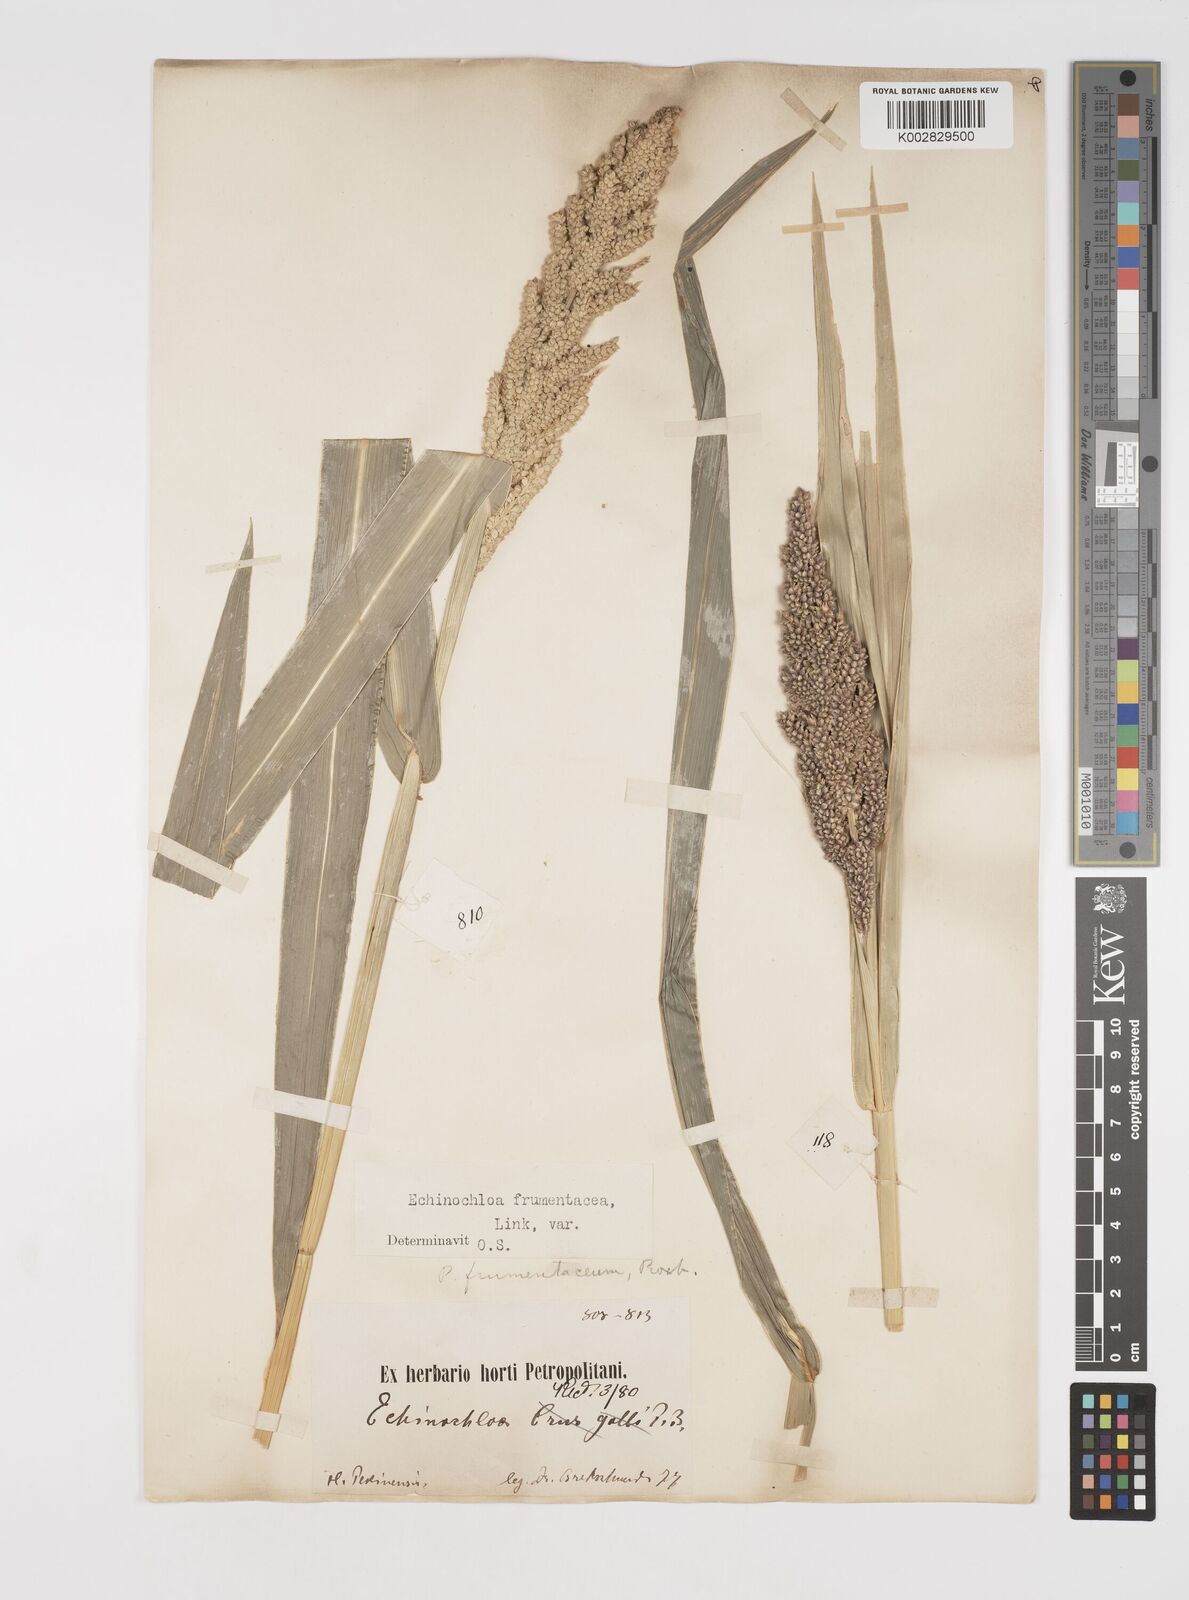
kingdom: Plantae
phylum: Tracheophyta
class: Liliopsida
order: Poales
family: Poaceae
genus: Echinochloa
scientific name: Echinochloa frumentacea
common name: Billion-dollar grass
